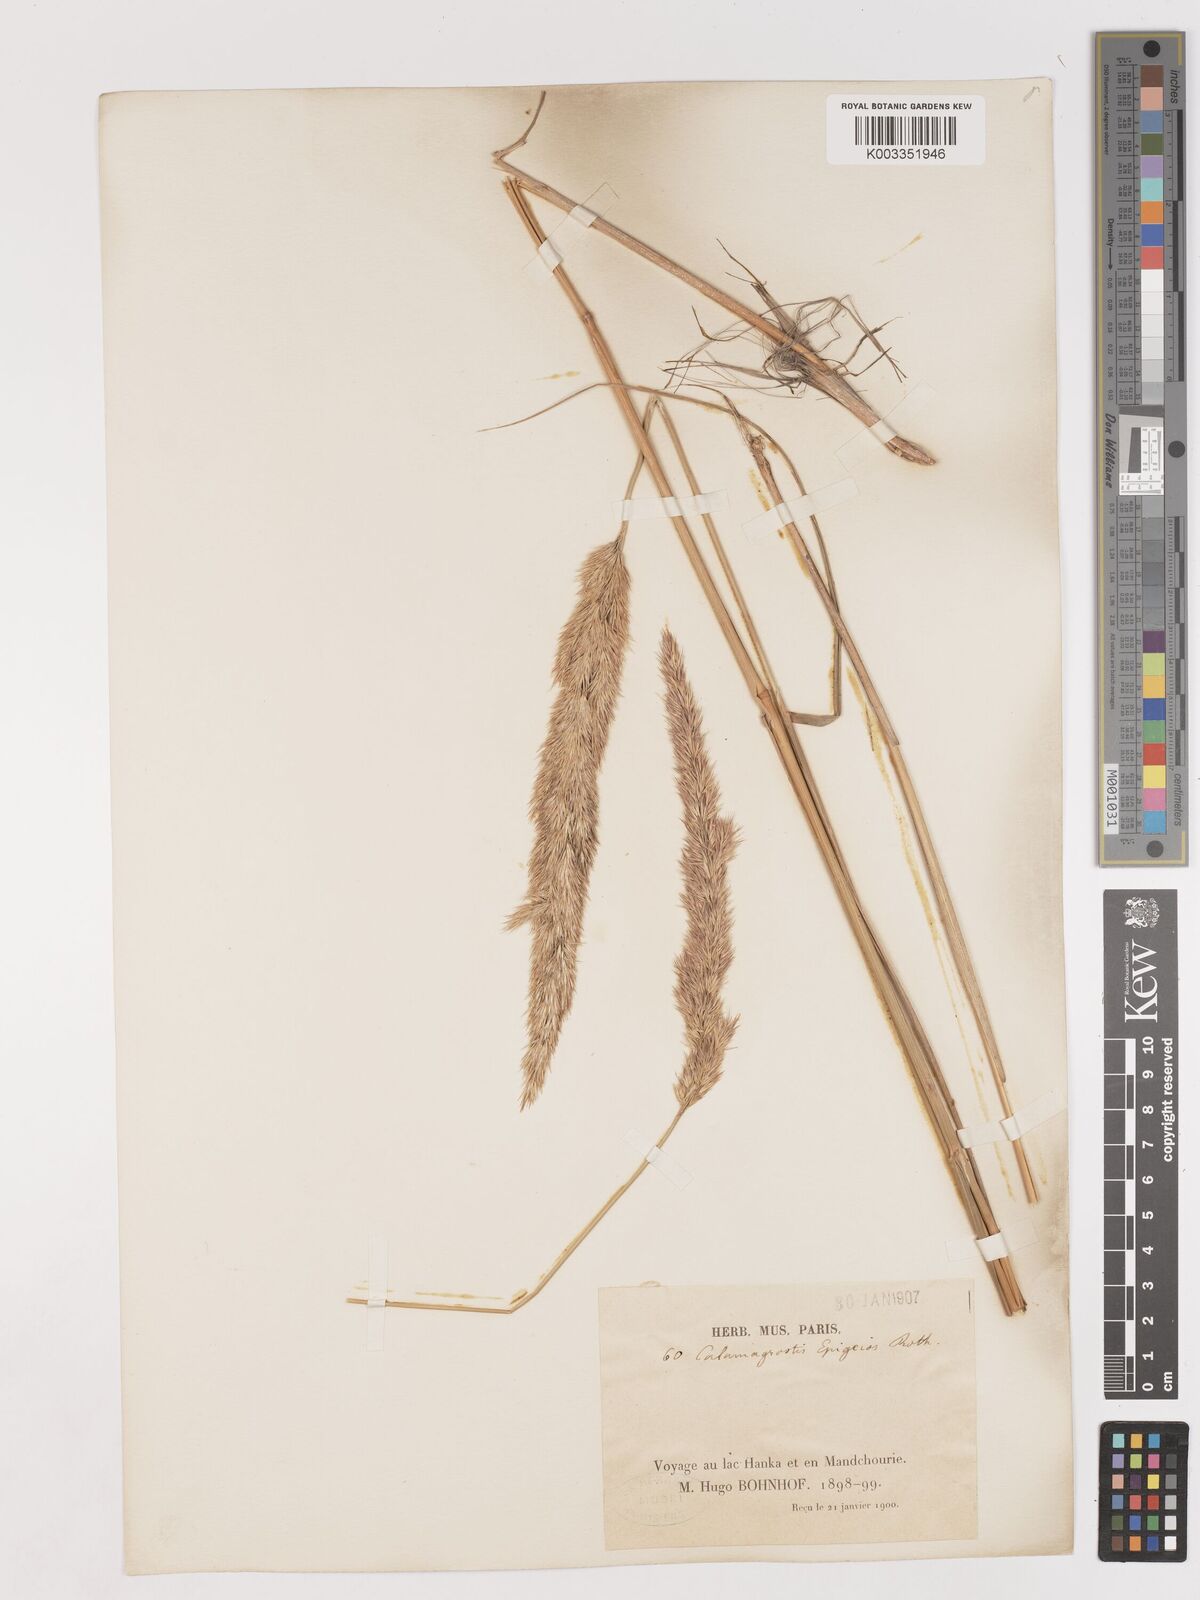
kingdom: Plantae
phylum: Tracheophyta
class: Liliopsida
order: Poales
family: Poaceae
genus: Calamagrostis
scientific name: Calamagrostis epigejos
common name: Wood small-reed
